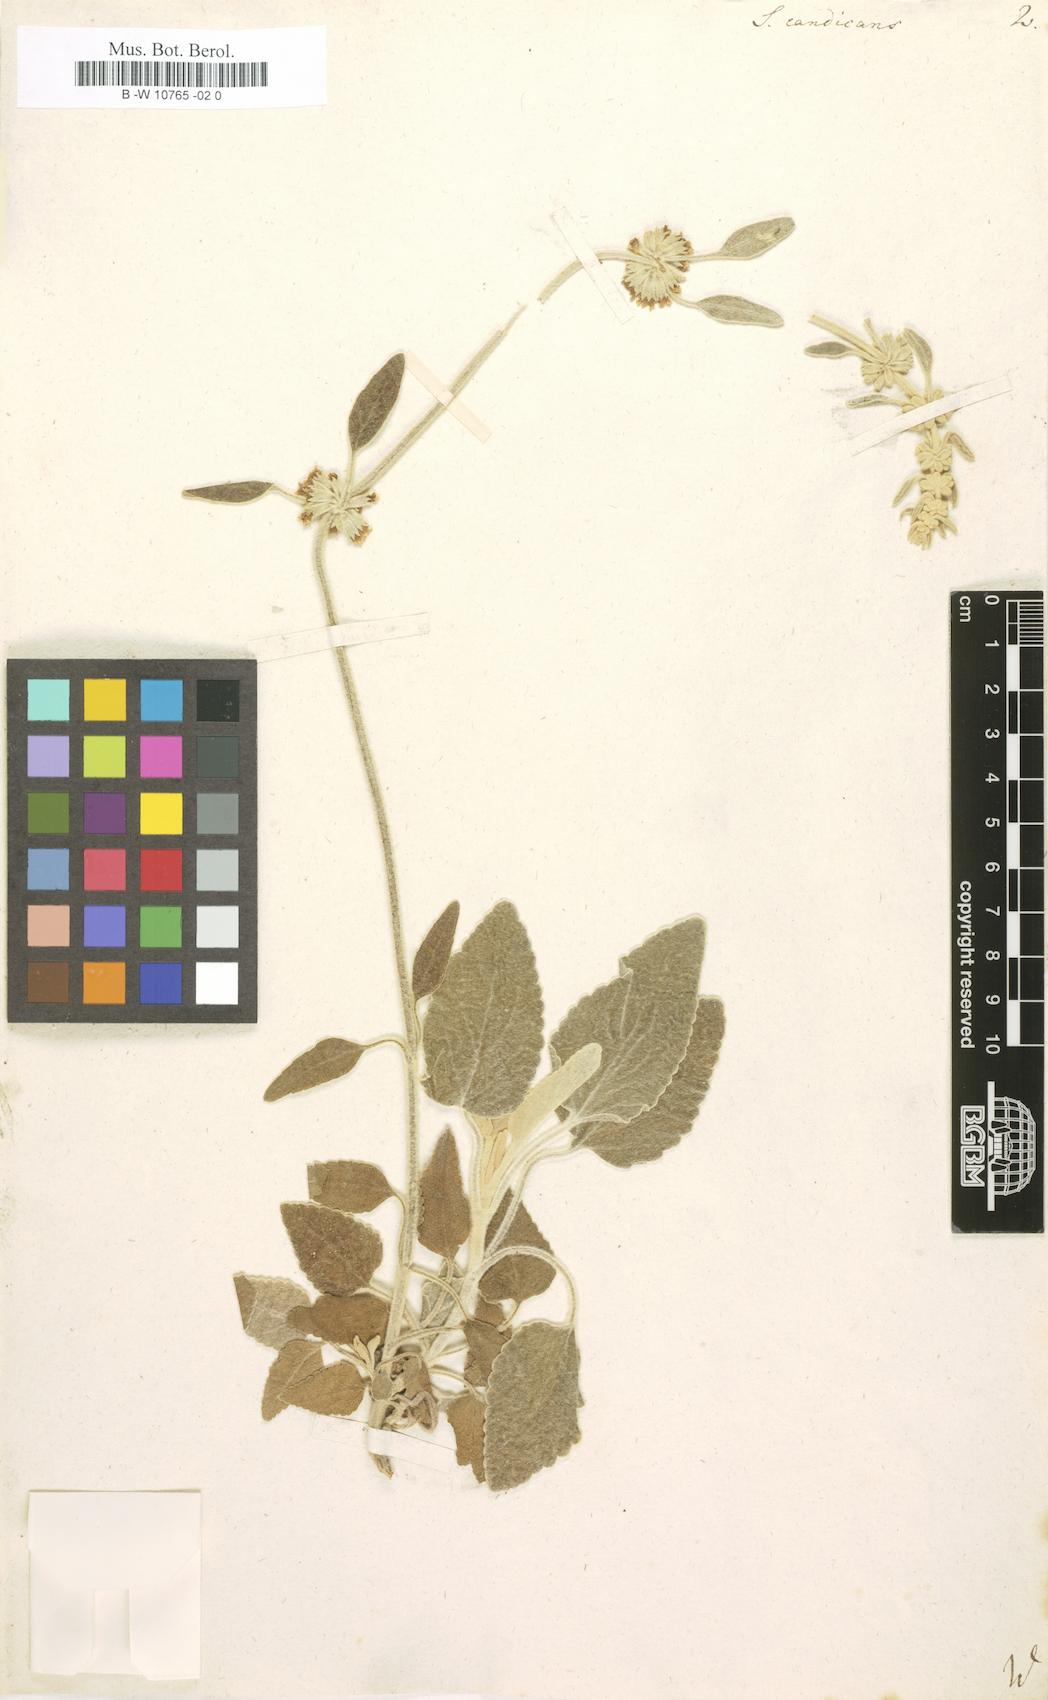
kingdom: Plantae
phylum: Tracheophyta
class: Magnoliopsida
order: Lamiales
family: Lamiaceae
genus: Sideritis
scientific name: Sideritis candicans
